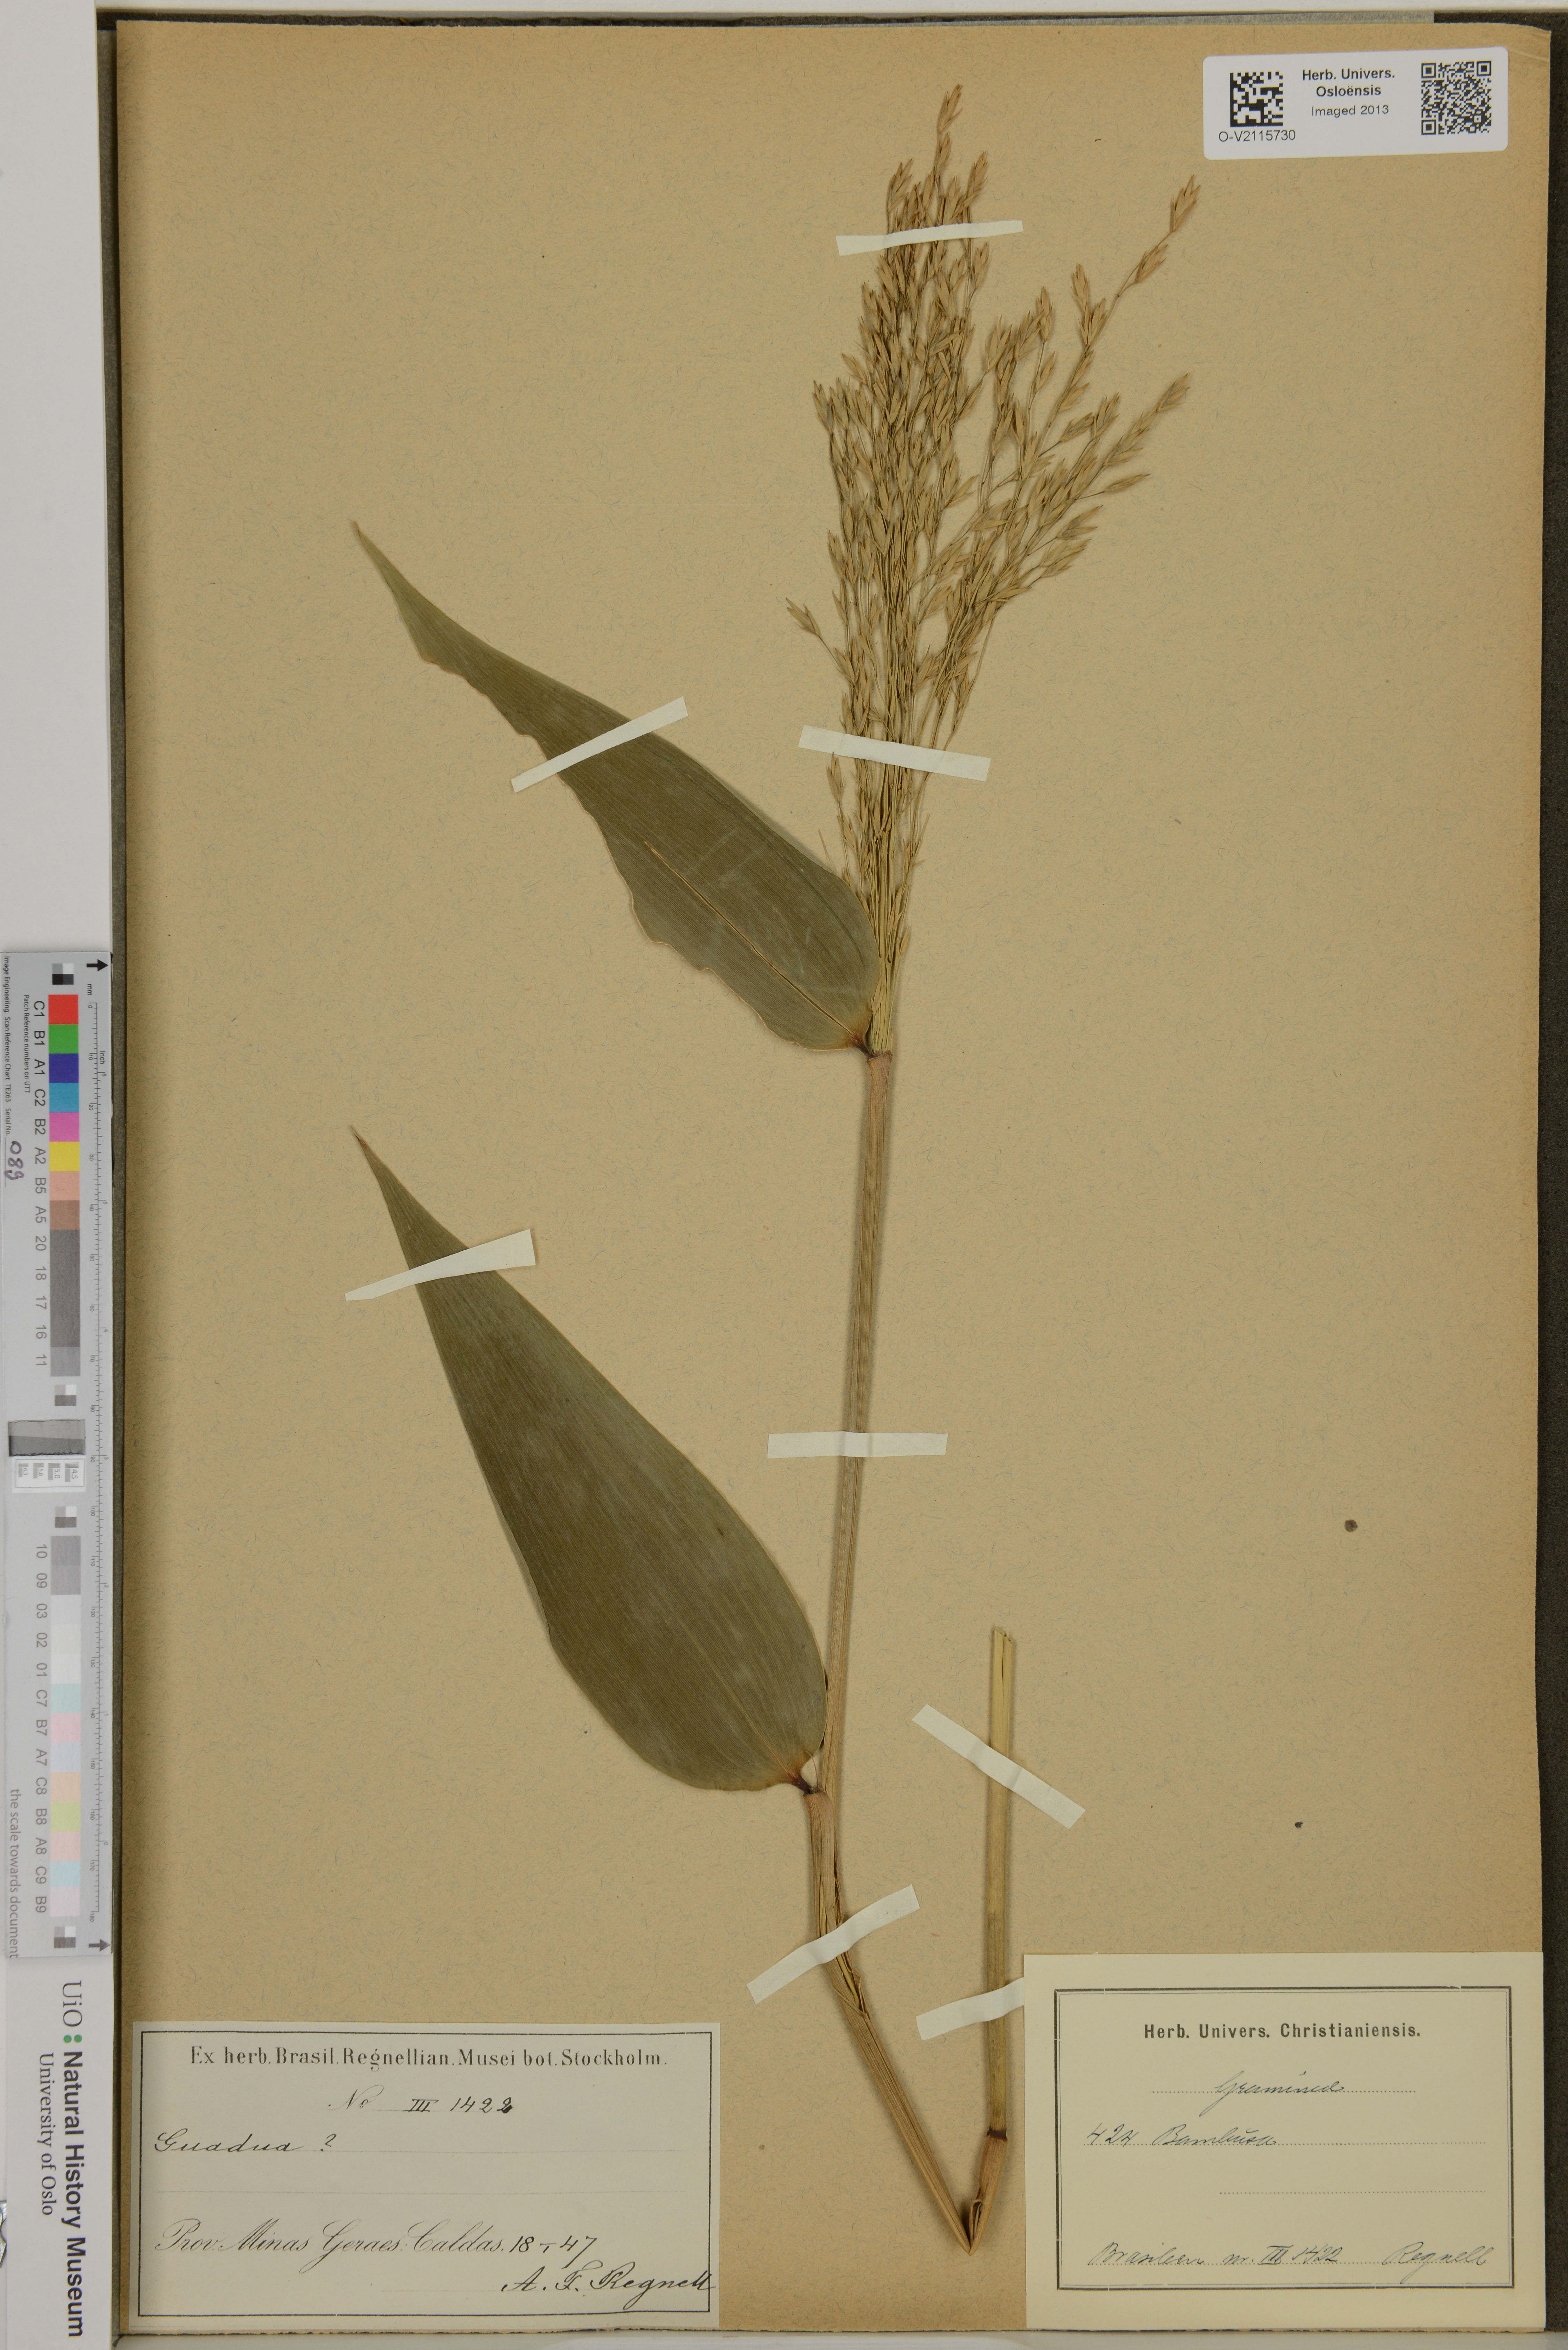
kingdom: Plantae
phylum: Tracheophyta
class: Liliopsida
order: Poales
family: Poaceae
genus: Guadua
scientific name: Guadua
